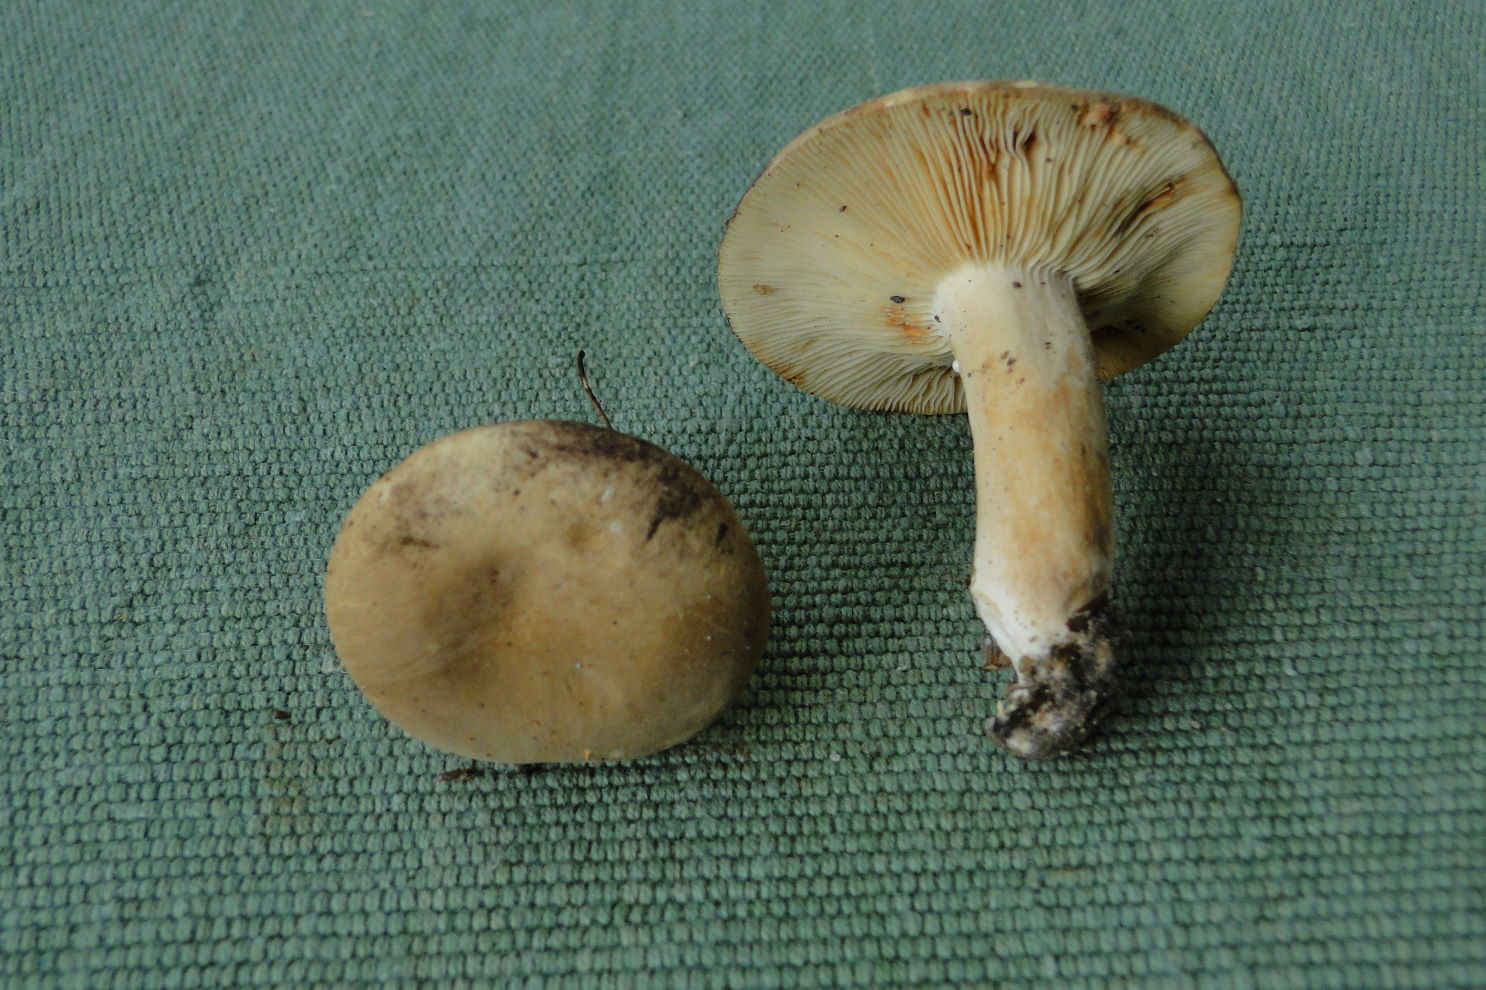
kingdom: Fungi
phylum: Basidiomycota
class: Agaricomycetes
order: Russulales
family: Russulaceae
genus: Lactarius
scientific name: Lactarius pterosporus
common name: vingesporet mælkehat
